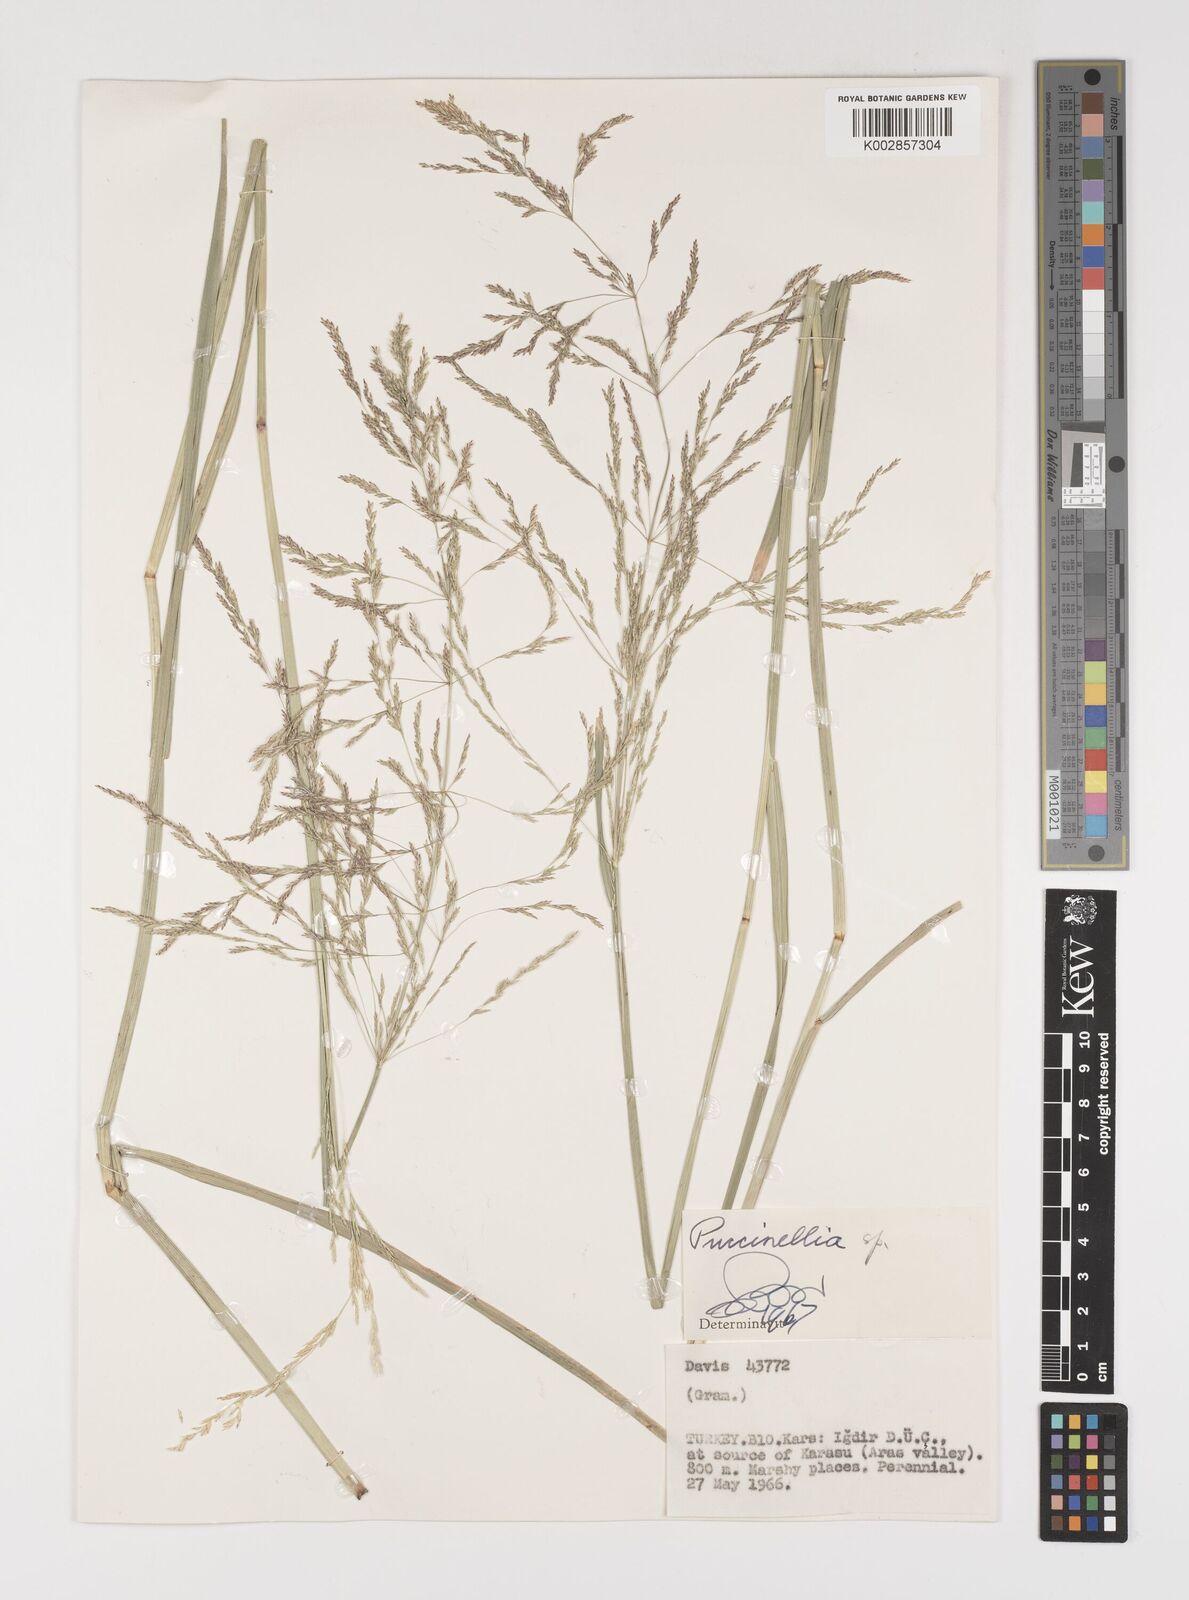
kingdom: Plantae
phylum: Tracheophyta
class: Liliopsida
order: Poales
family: Poaceae
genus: Puccinellia
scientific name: Puccinellia
